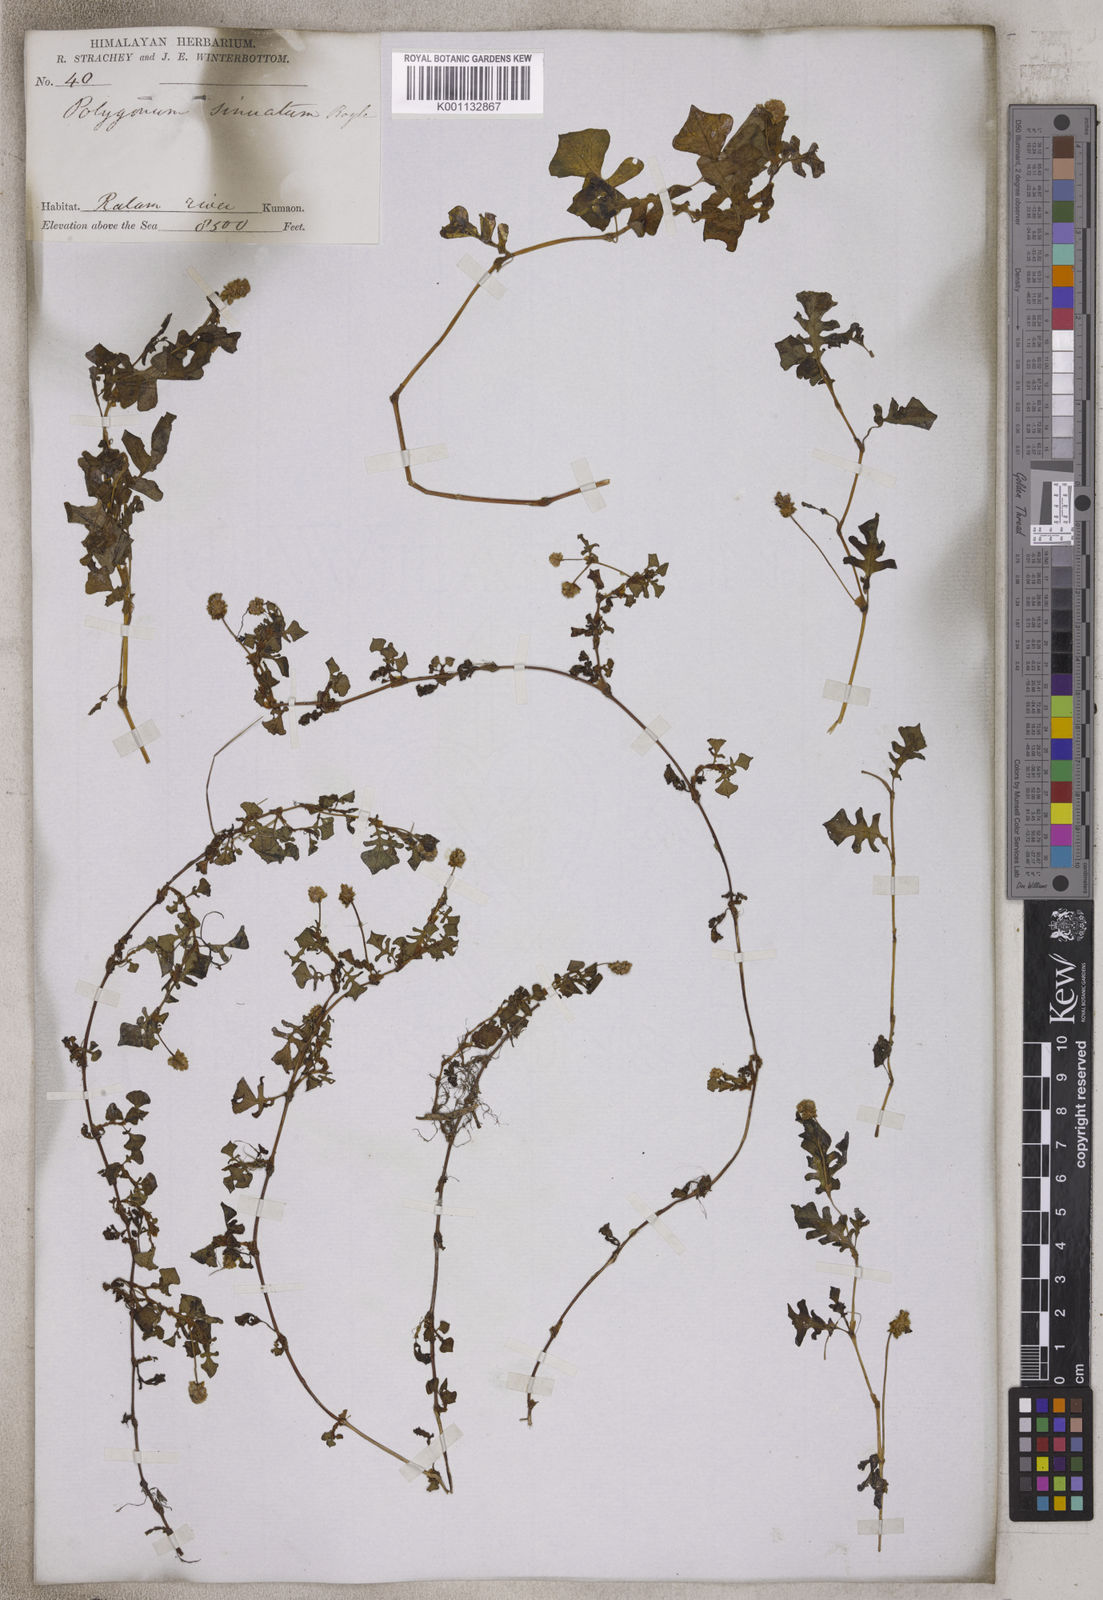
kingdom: Plantae
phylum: Tracheophyta
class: Magnoliopsida
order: Caryophyllales
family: Polygonaceae
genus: Persicaria
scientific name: Persicaria sinuata
